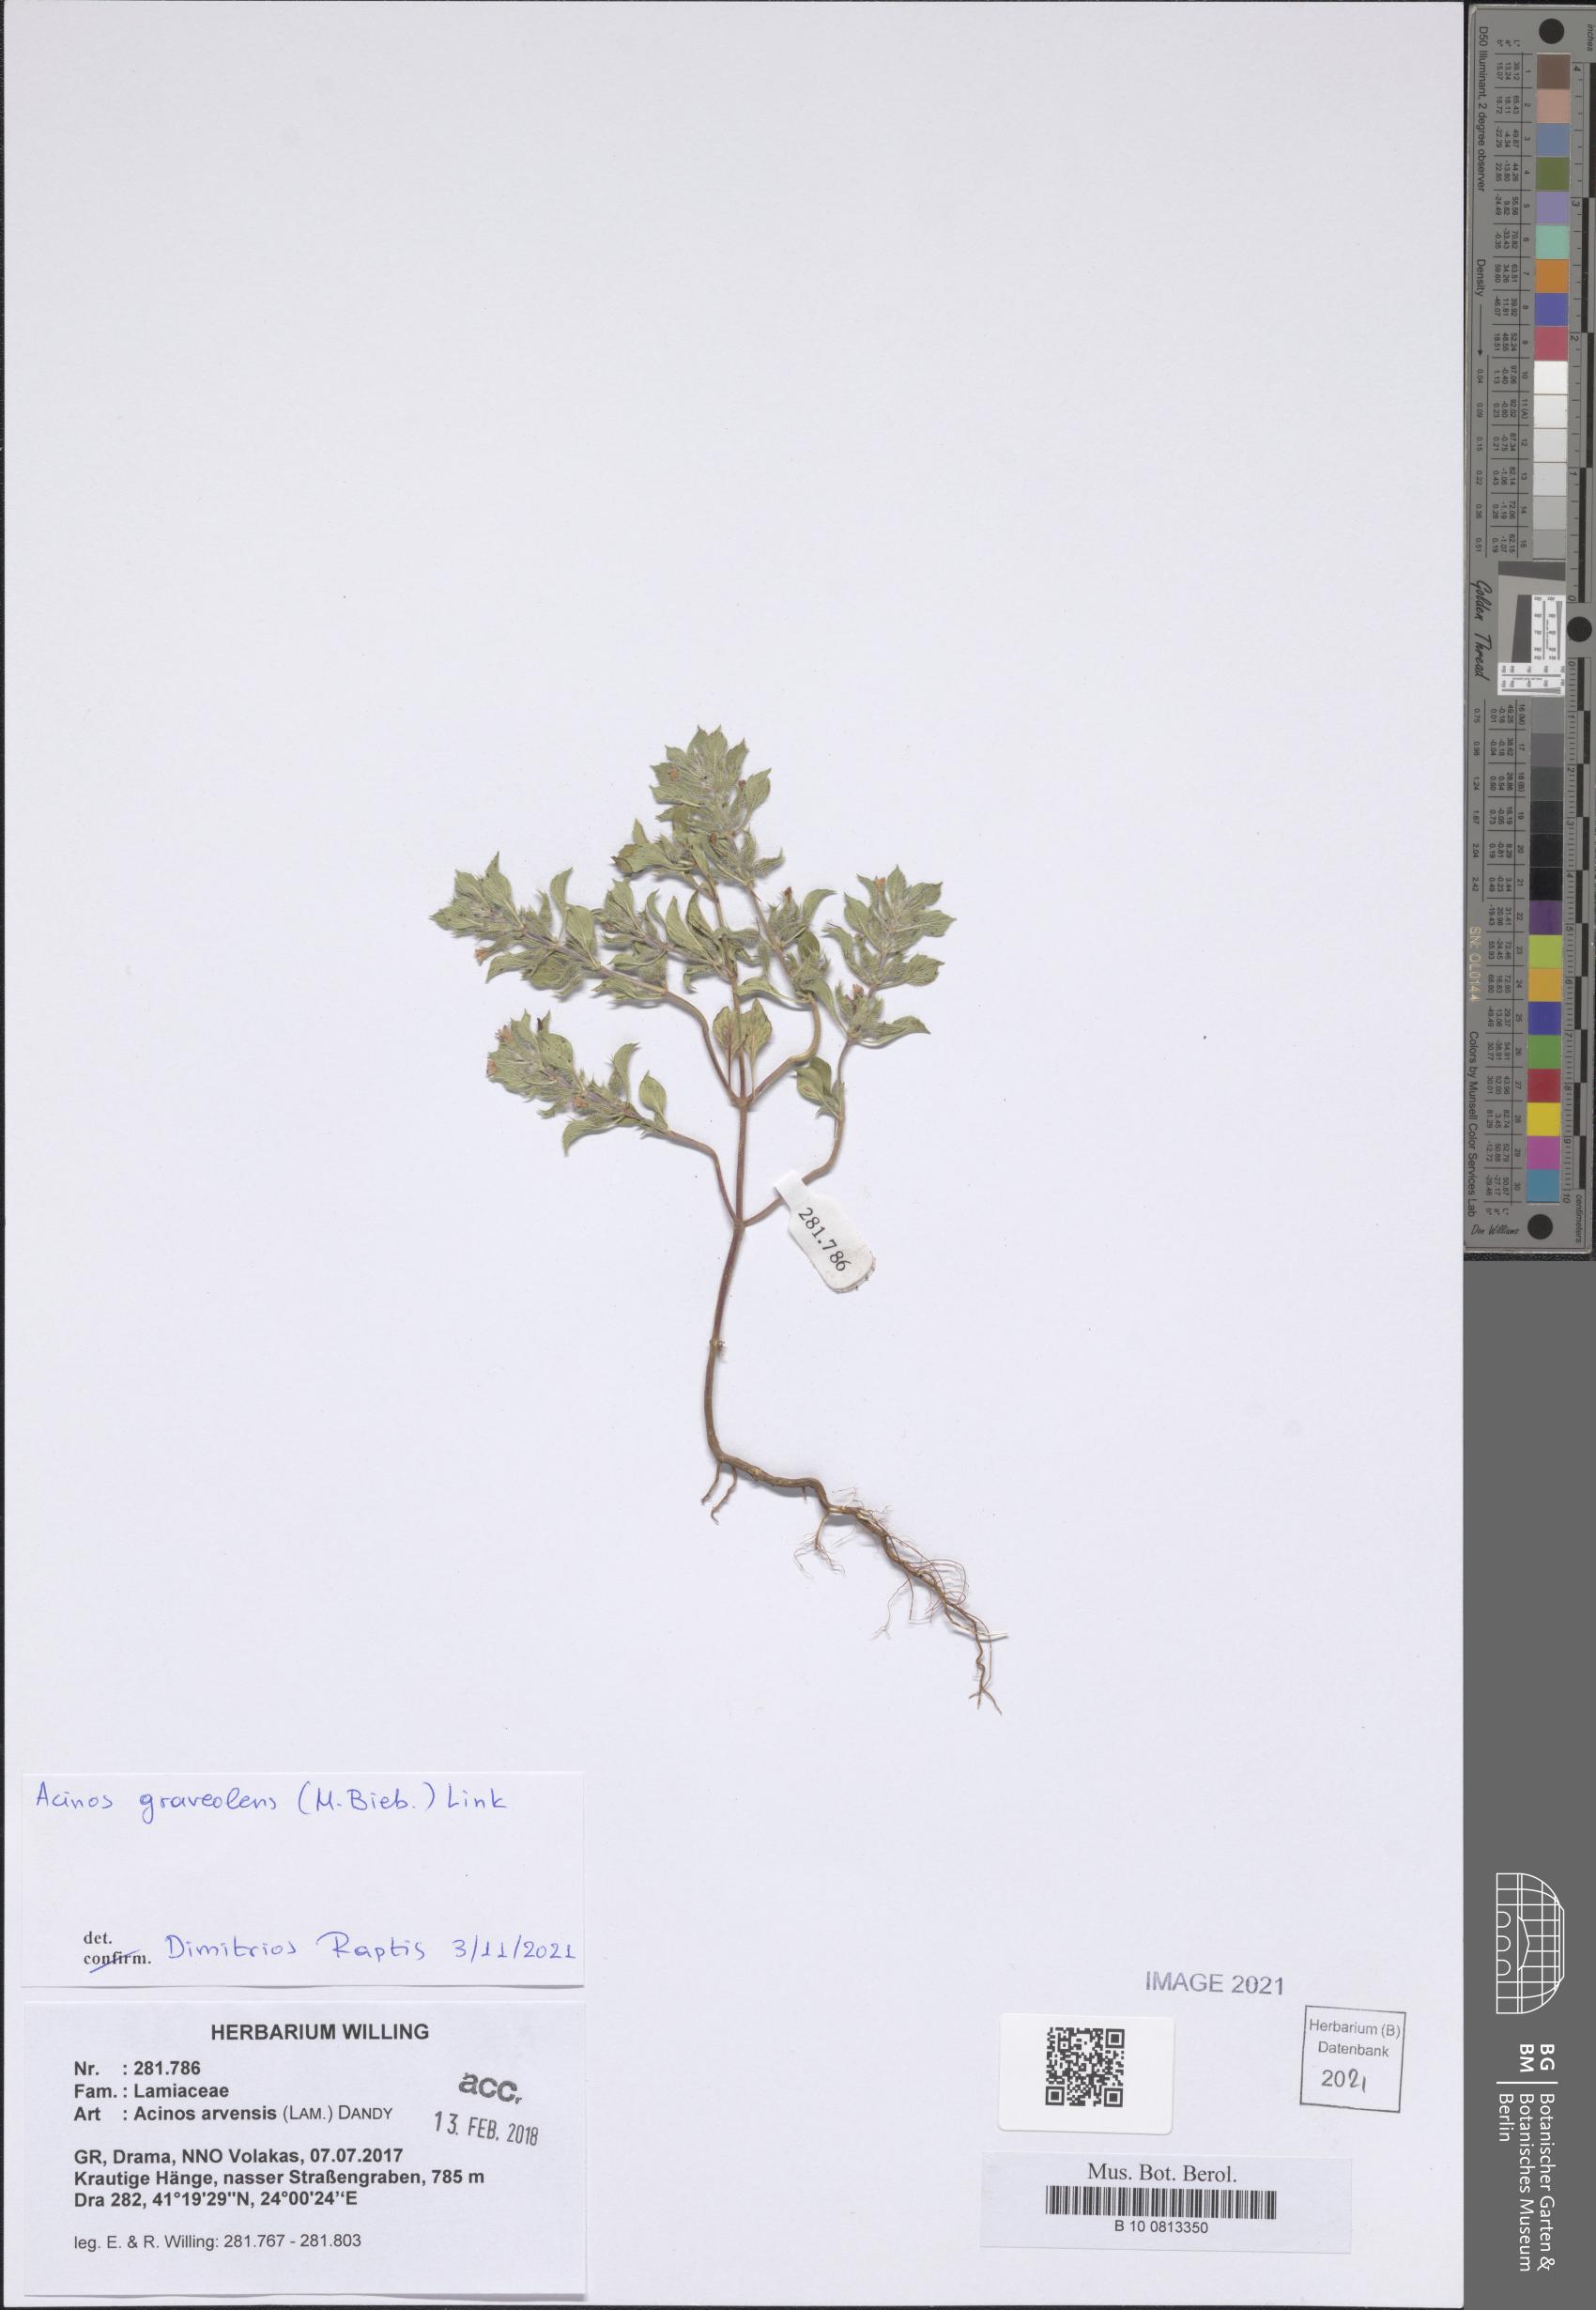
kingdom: Plantae
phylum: Tracheophyta
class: Magnoliopsida
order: Lamiales
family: Lamiaceae
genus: Clinopodium
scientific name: Clinopodium graveolens
